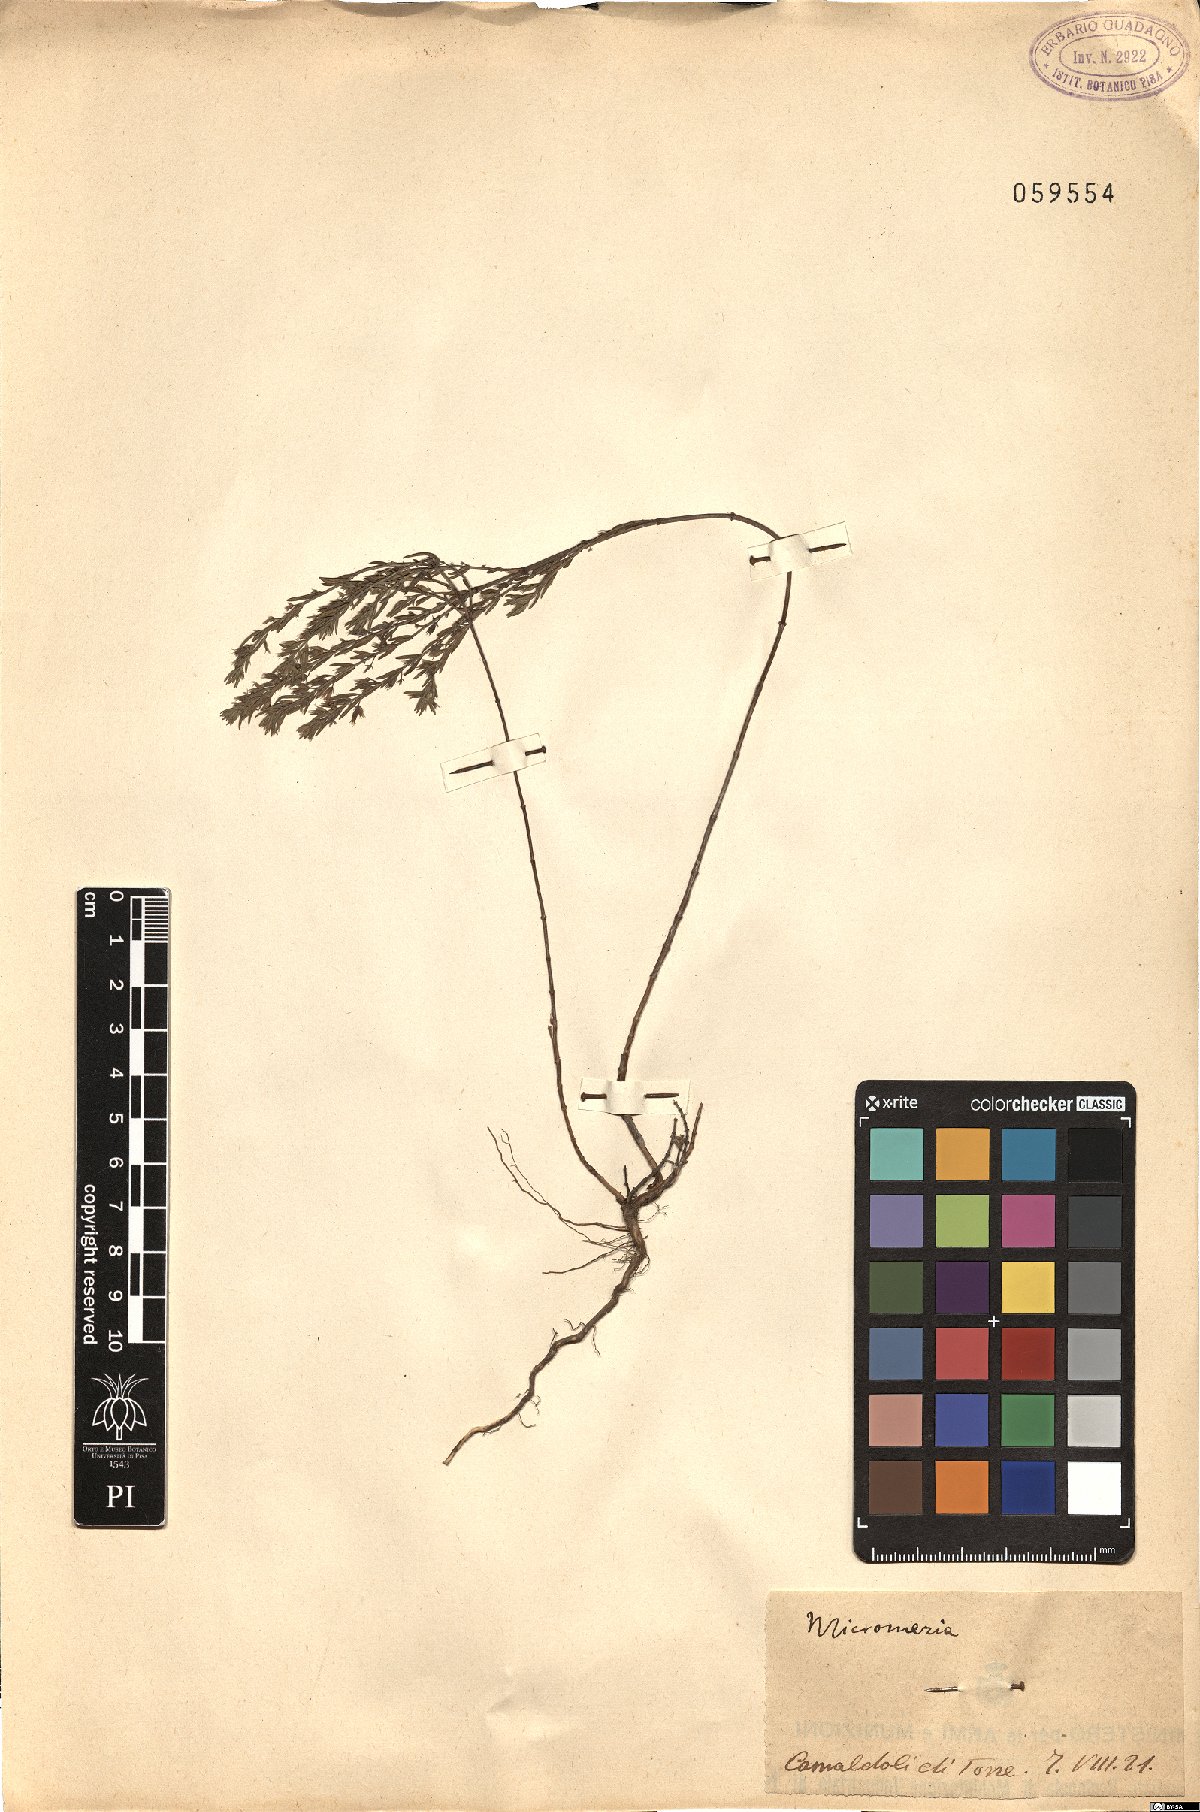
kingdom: Plantae
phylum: Tracheophyta
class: Magnoliopsida
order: Lamiales
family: Lamiaceae
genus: Micromeria
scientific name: Micromeria
